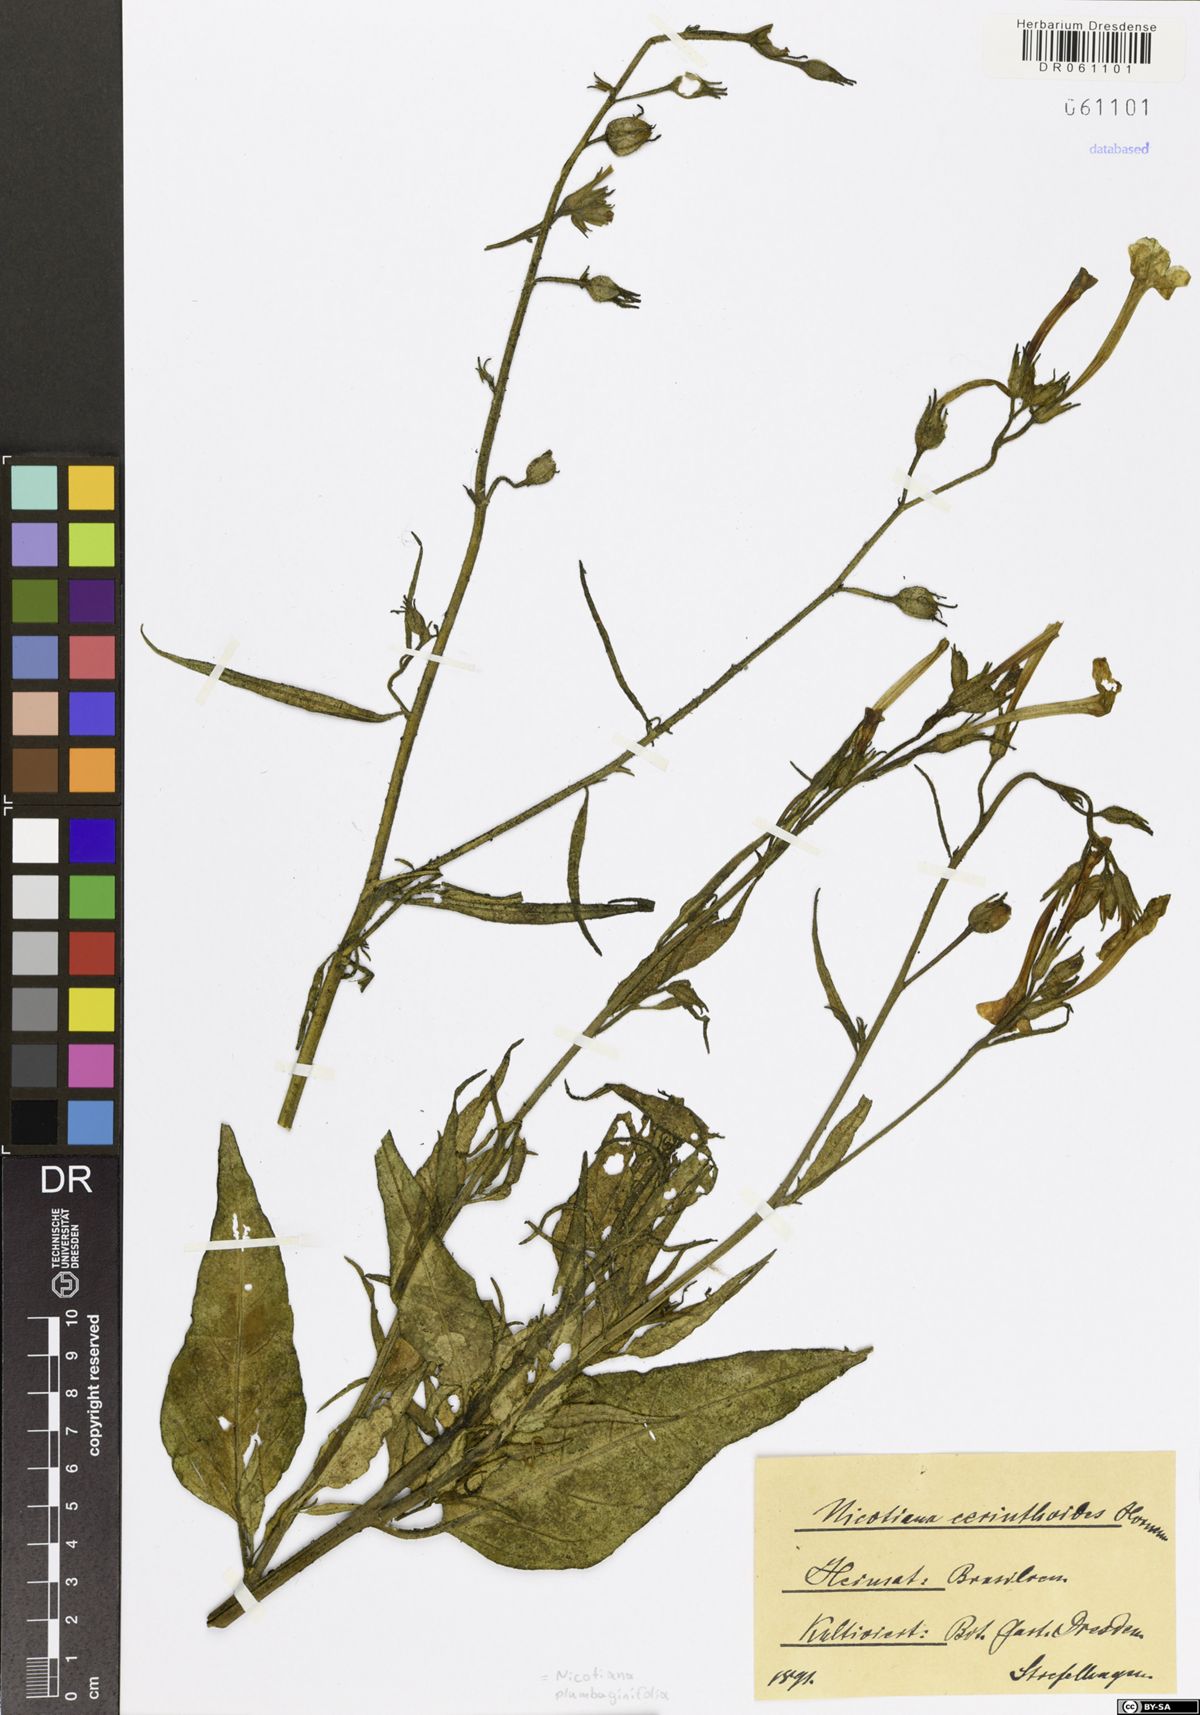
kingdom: Plantae
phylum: Tracheophyta
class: Magnoliopsida
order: Solanales
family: Solanaceae
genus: Nicotiana
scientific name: Nicotiana plumbaginifolia
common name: Tex-mex tobacco
